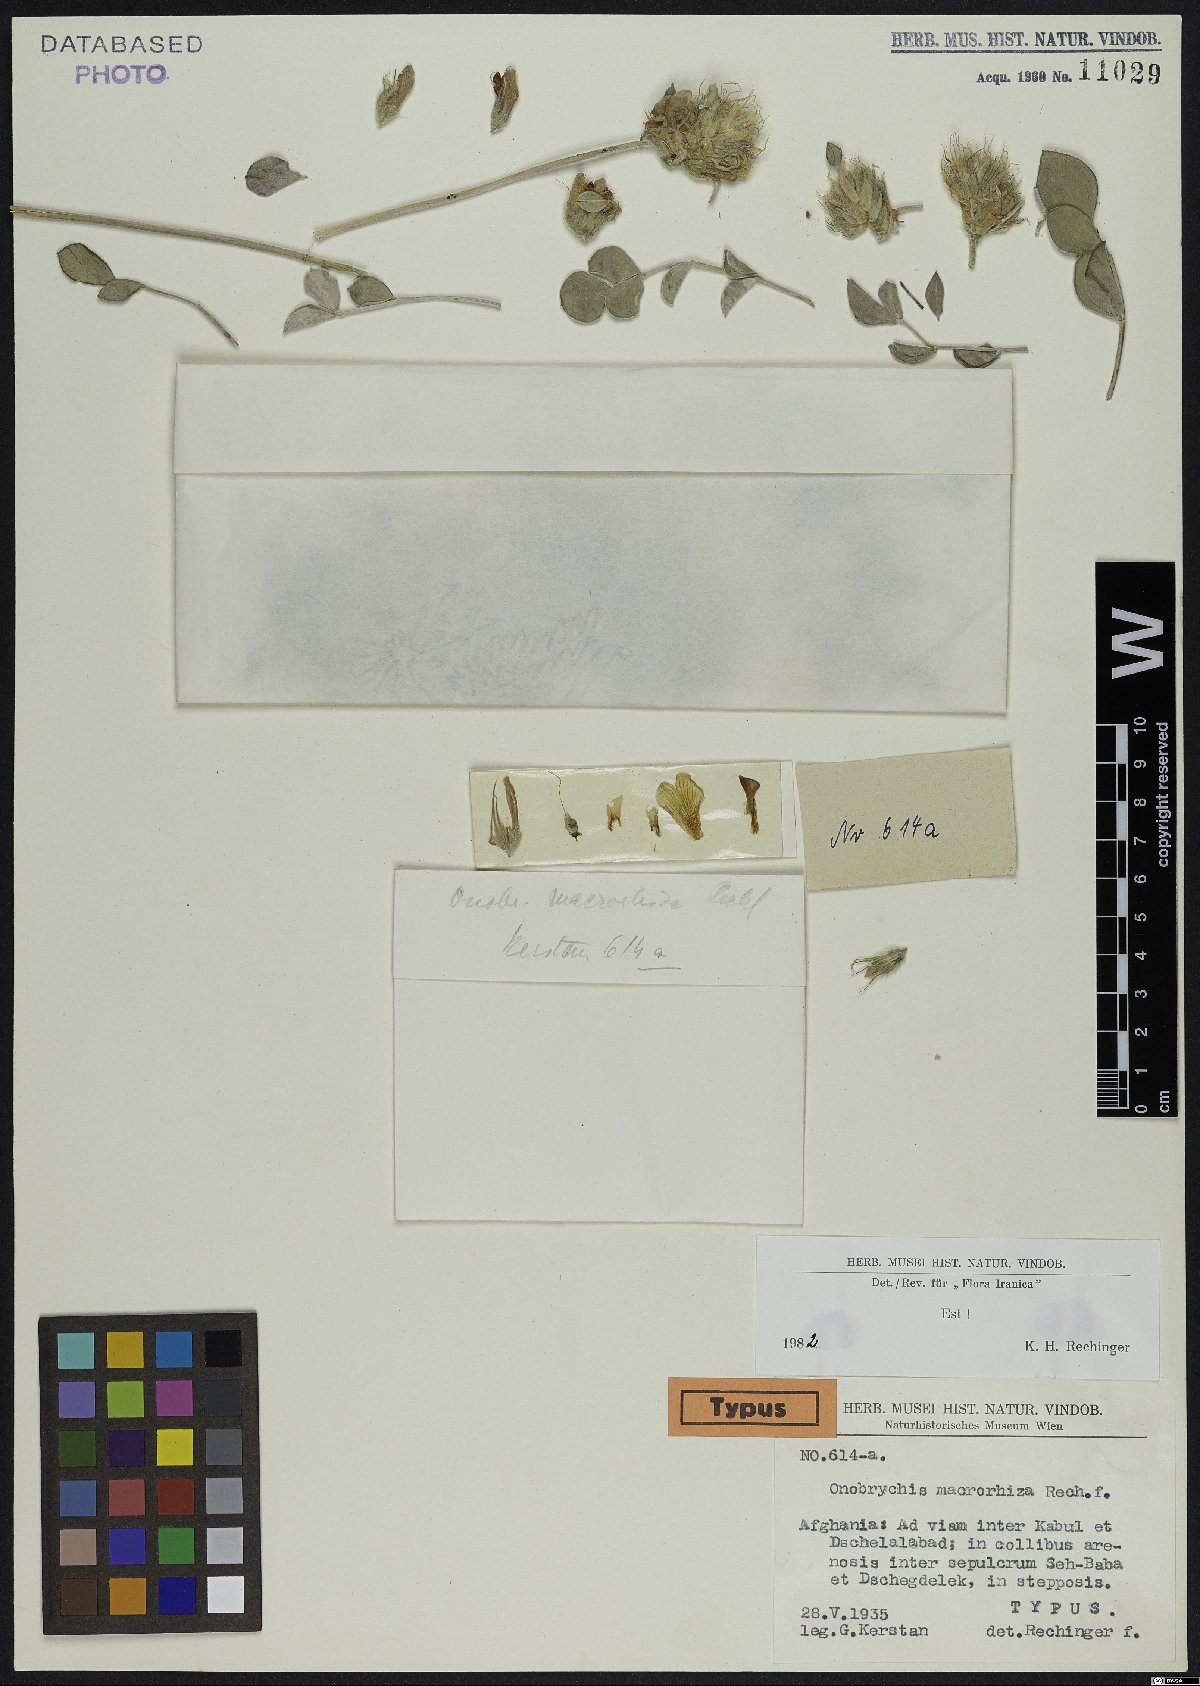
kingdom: Plantae
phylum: Tracheophyta
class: Magnoliopsida
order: Fabales
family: Fabaceae
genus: Onobrychis
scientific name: Onobrychis macrorhiza
